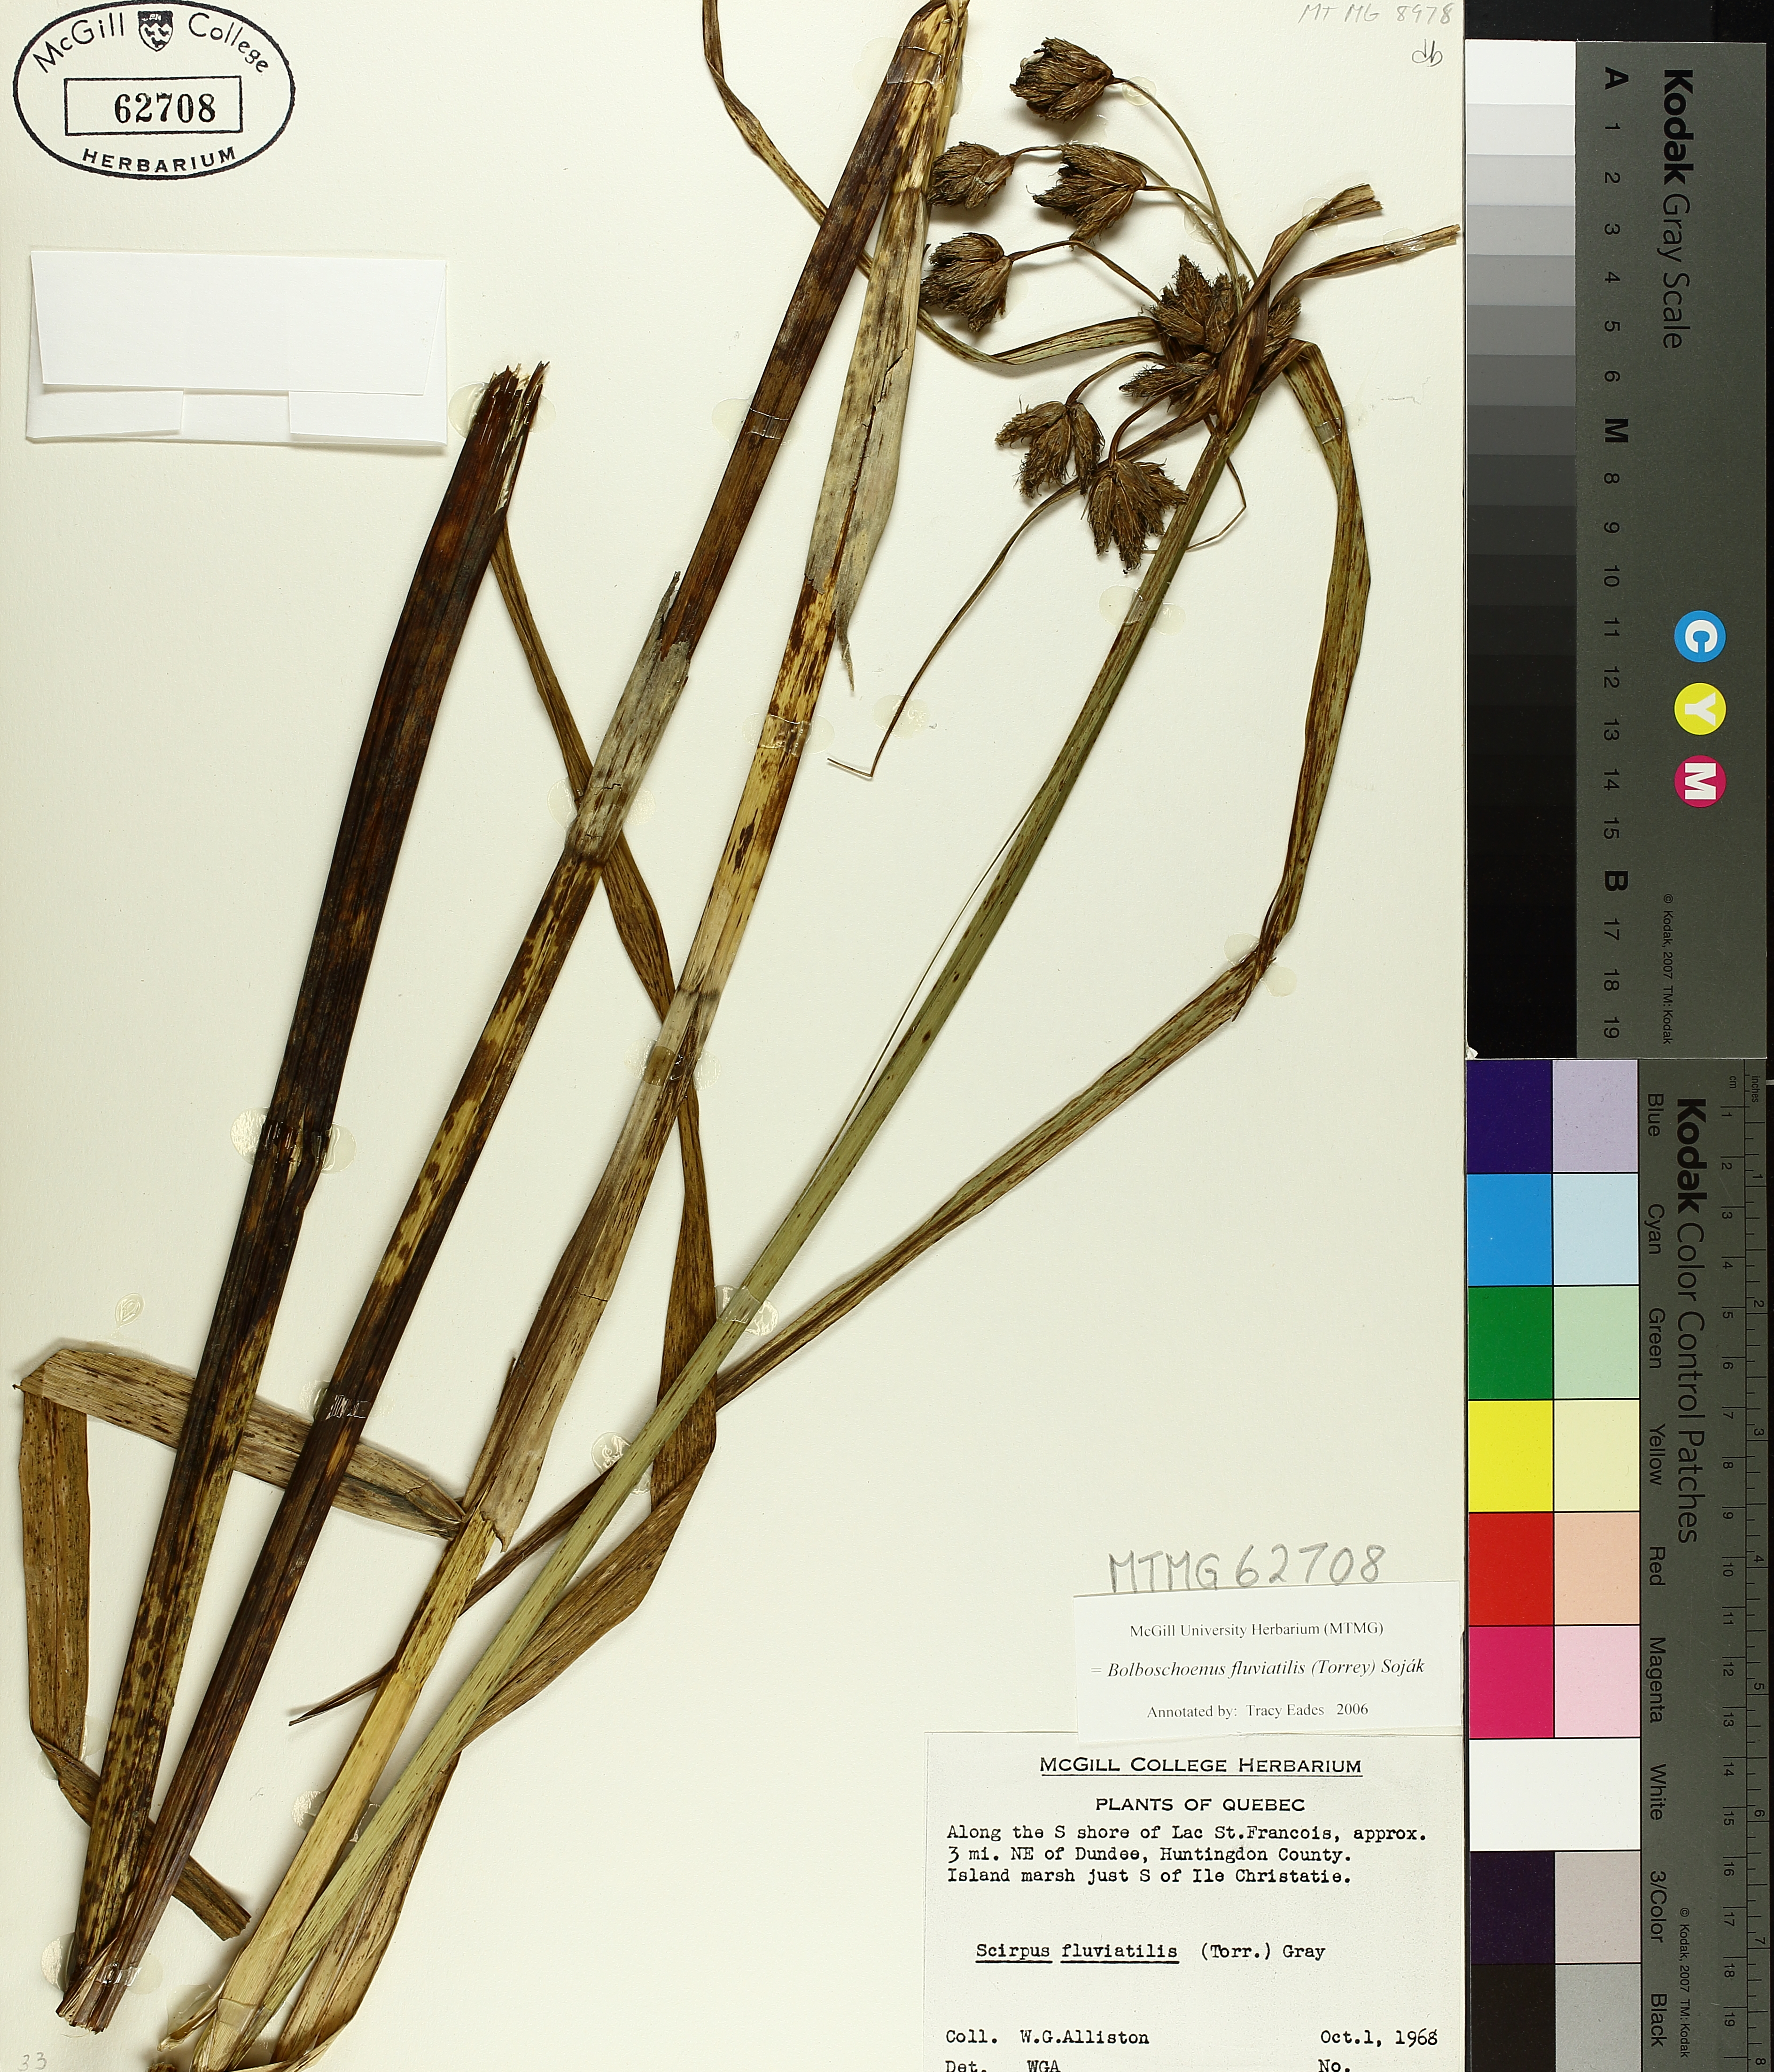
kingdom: Plantae
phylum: Tracheophyta
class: Liliopsida
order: Poales
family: Cyperaceae
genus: Bolboschoenus
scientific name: Bolboschoenus fluviatilis
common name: River bulrush
